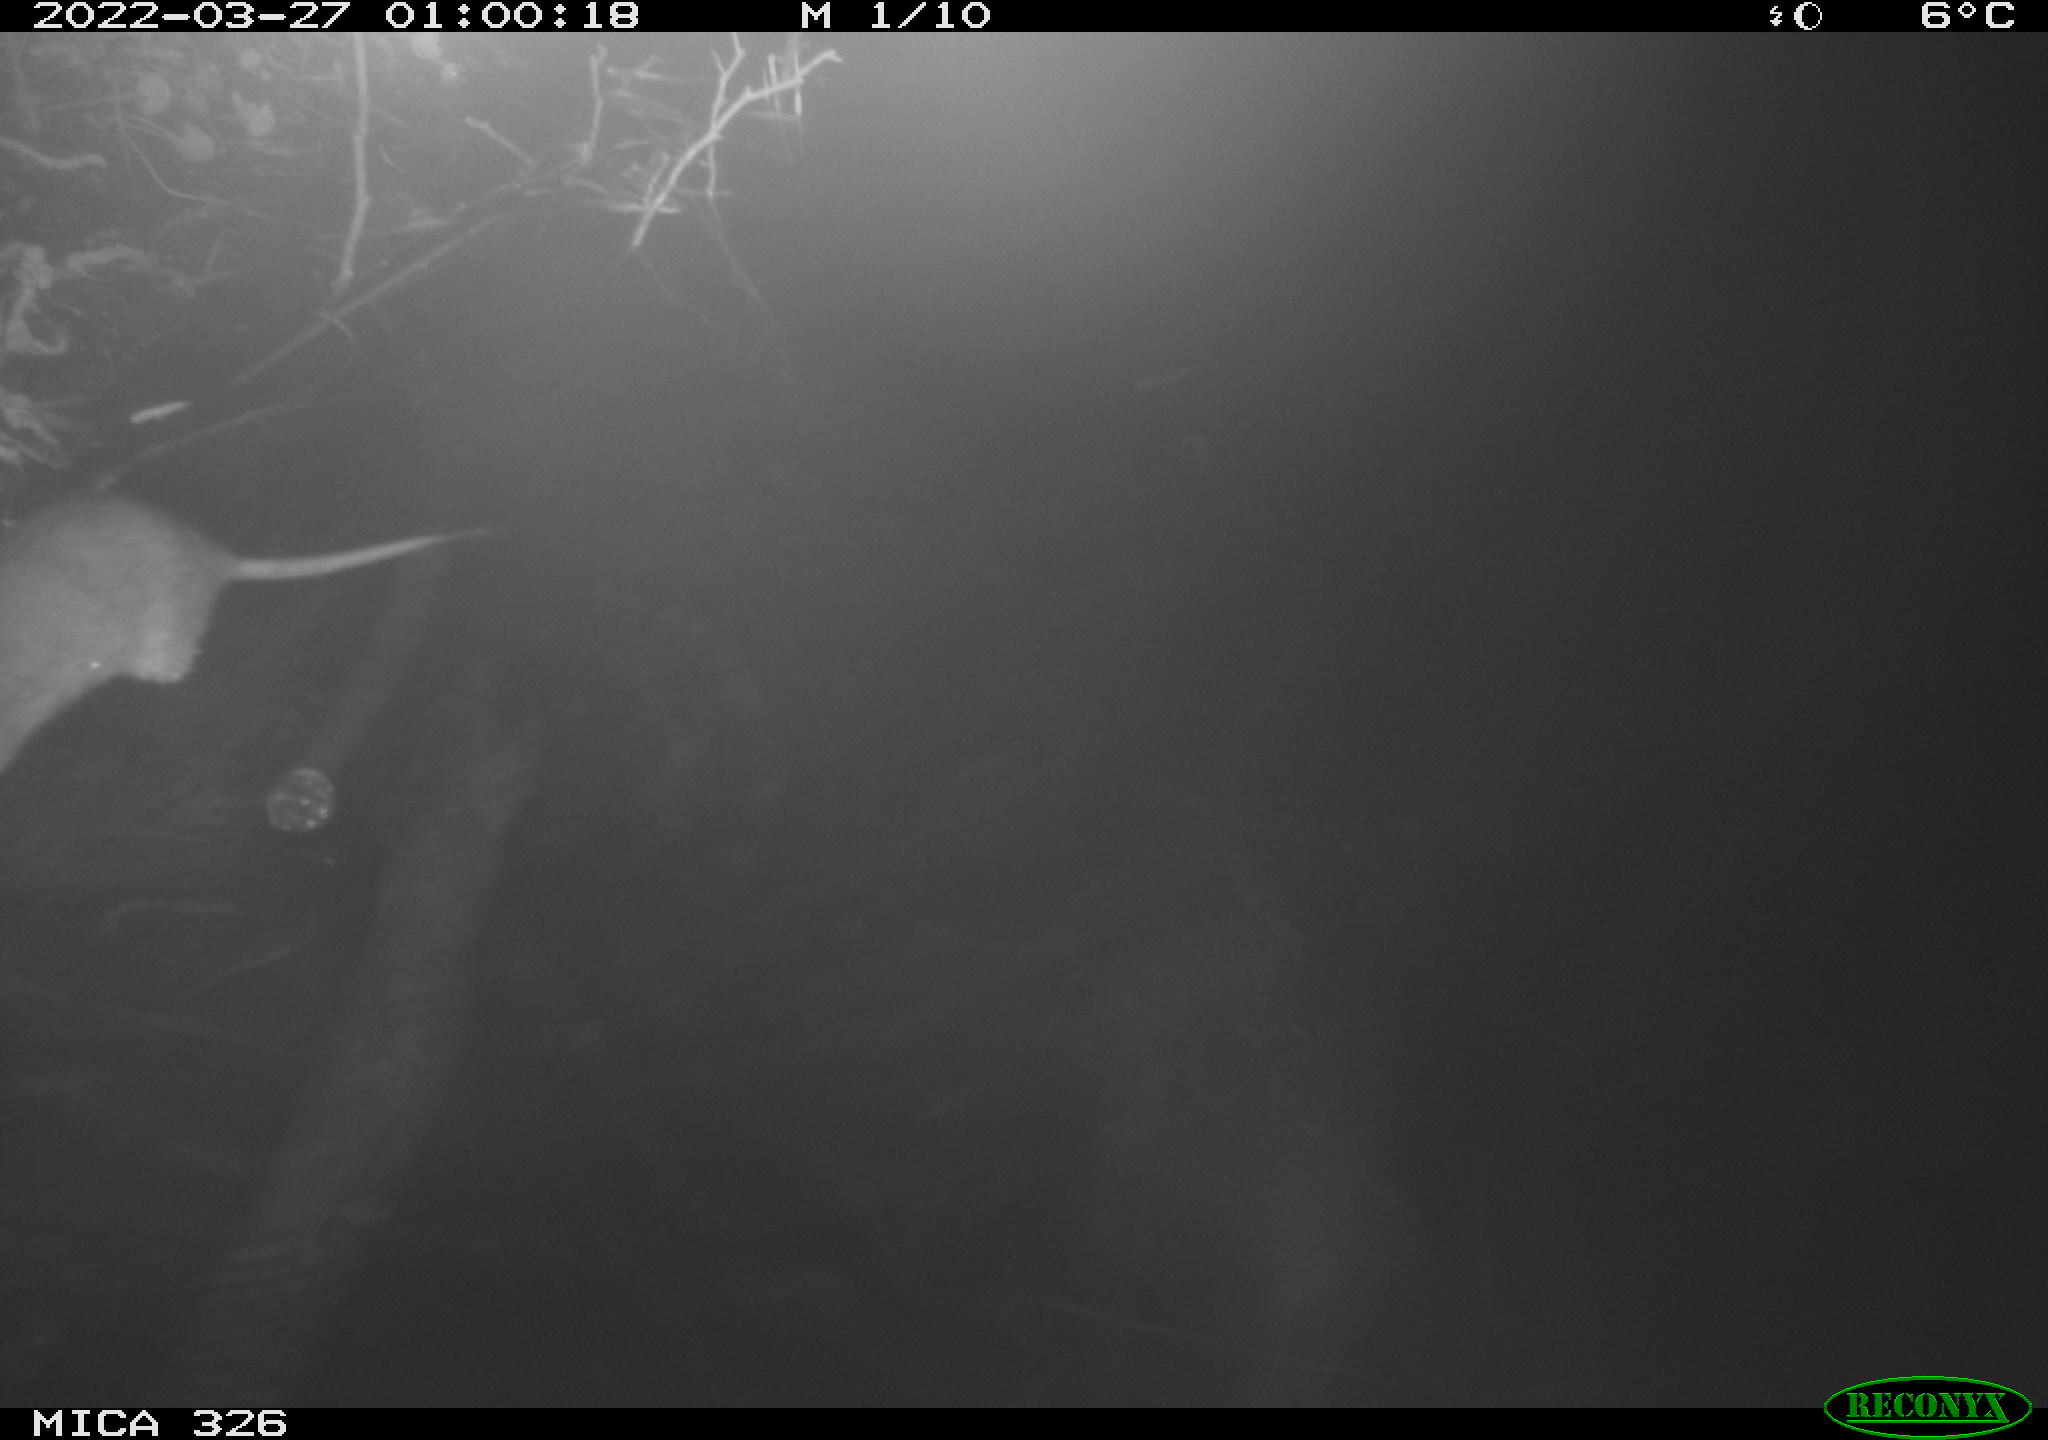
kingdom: Animalia
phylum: Chordata
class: Mammalia
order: Rodentia
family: Muridae
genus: Rattus
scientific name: Rattus norvegicus
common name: Brown rat
